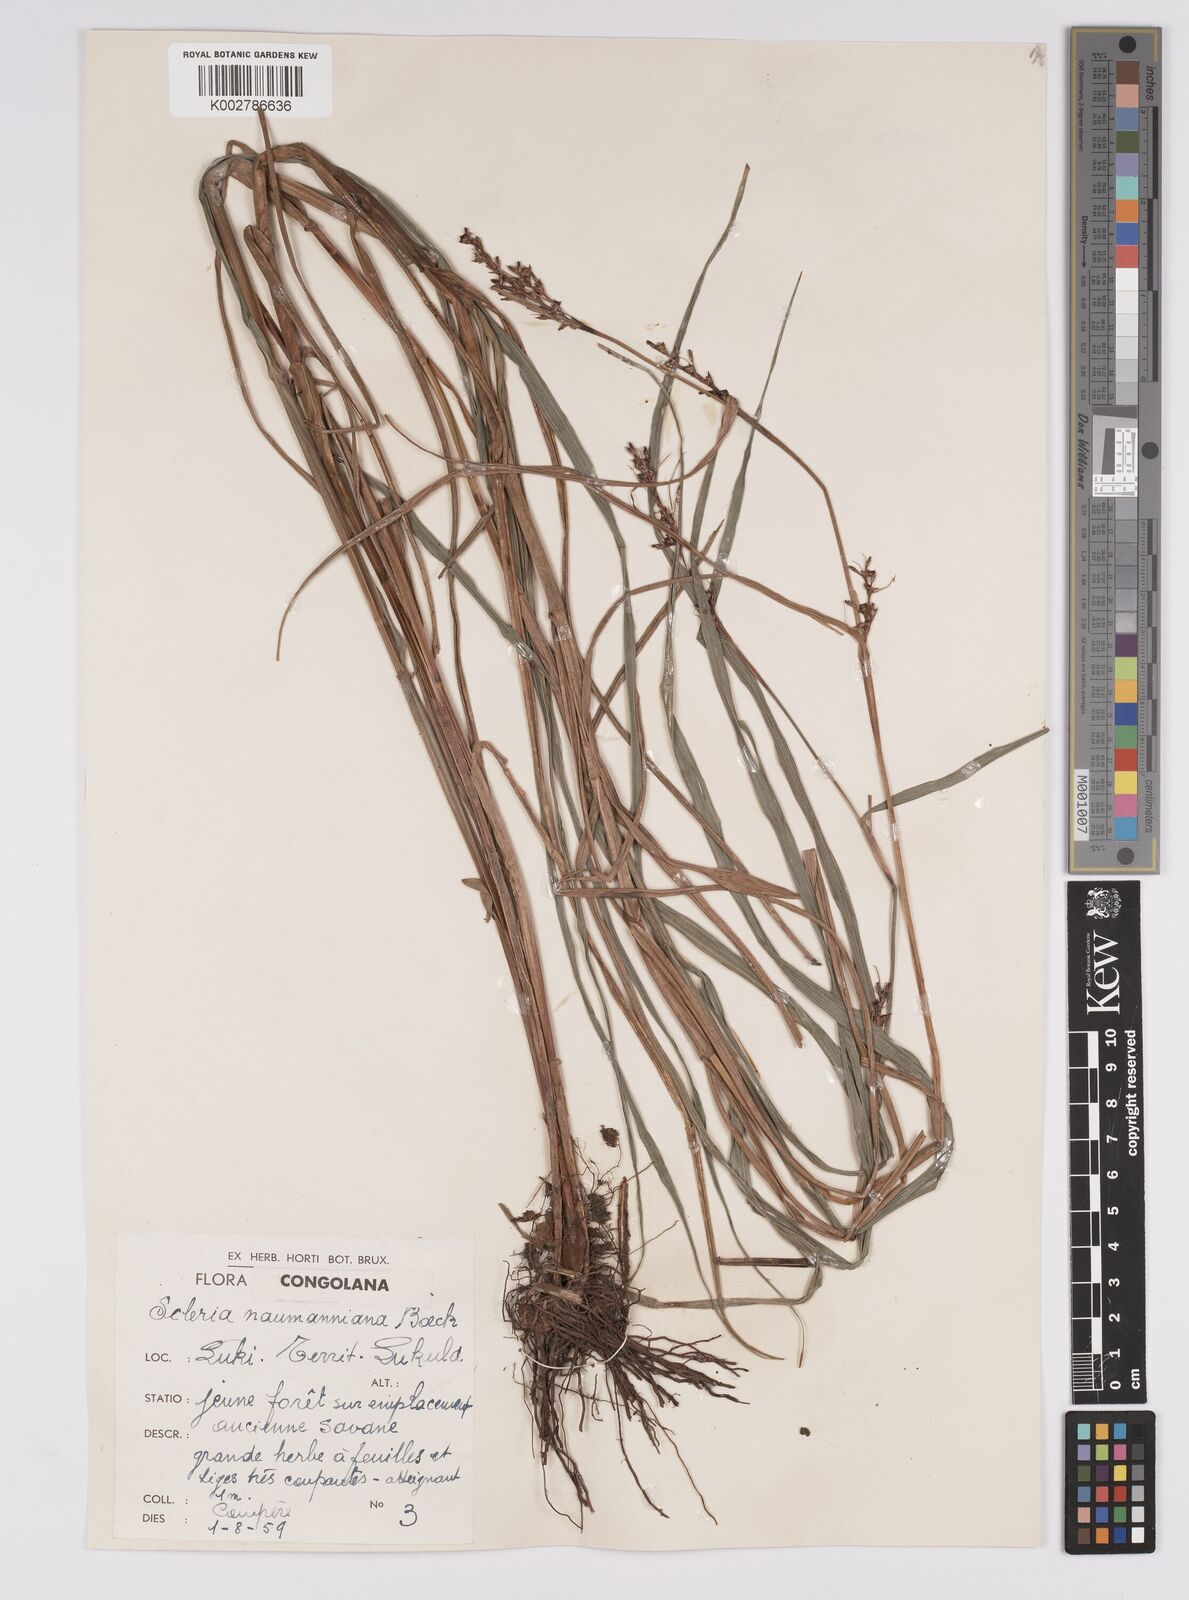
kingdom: Plantae
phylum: Tracheophyta
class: Liliopsida
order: Poales
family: Cyperaceae
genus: Scleria
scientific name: Scleria naumanniana
